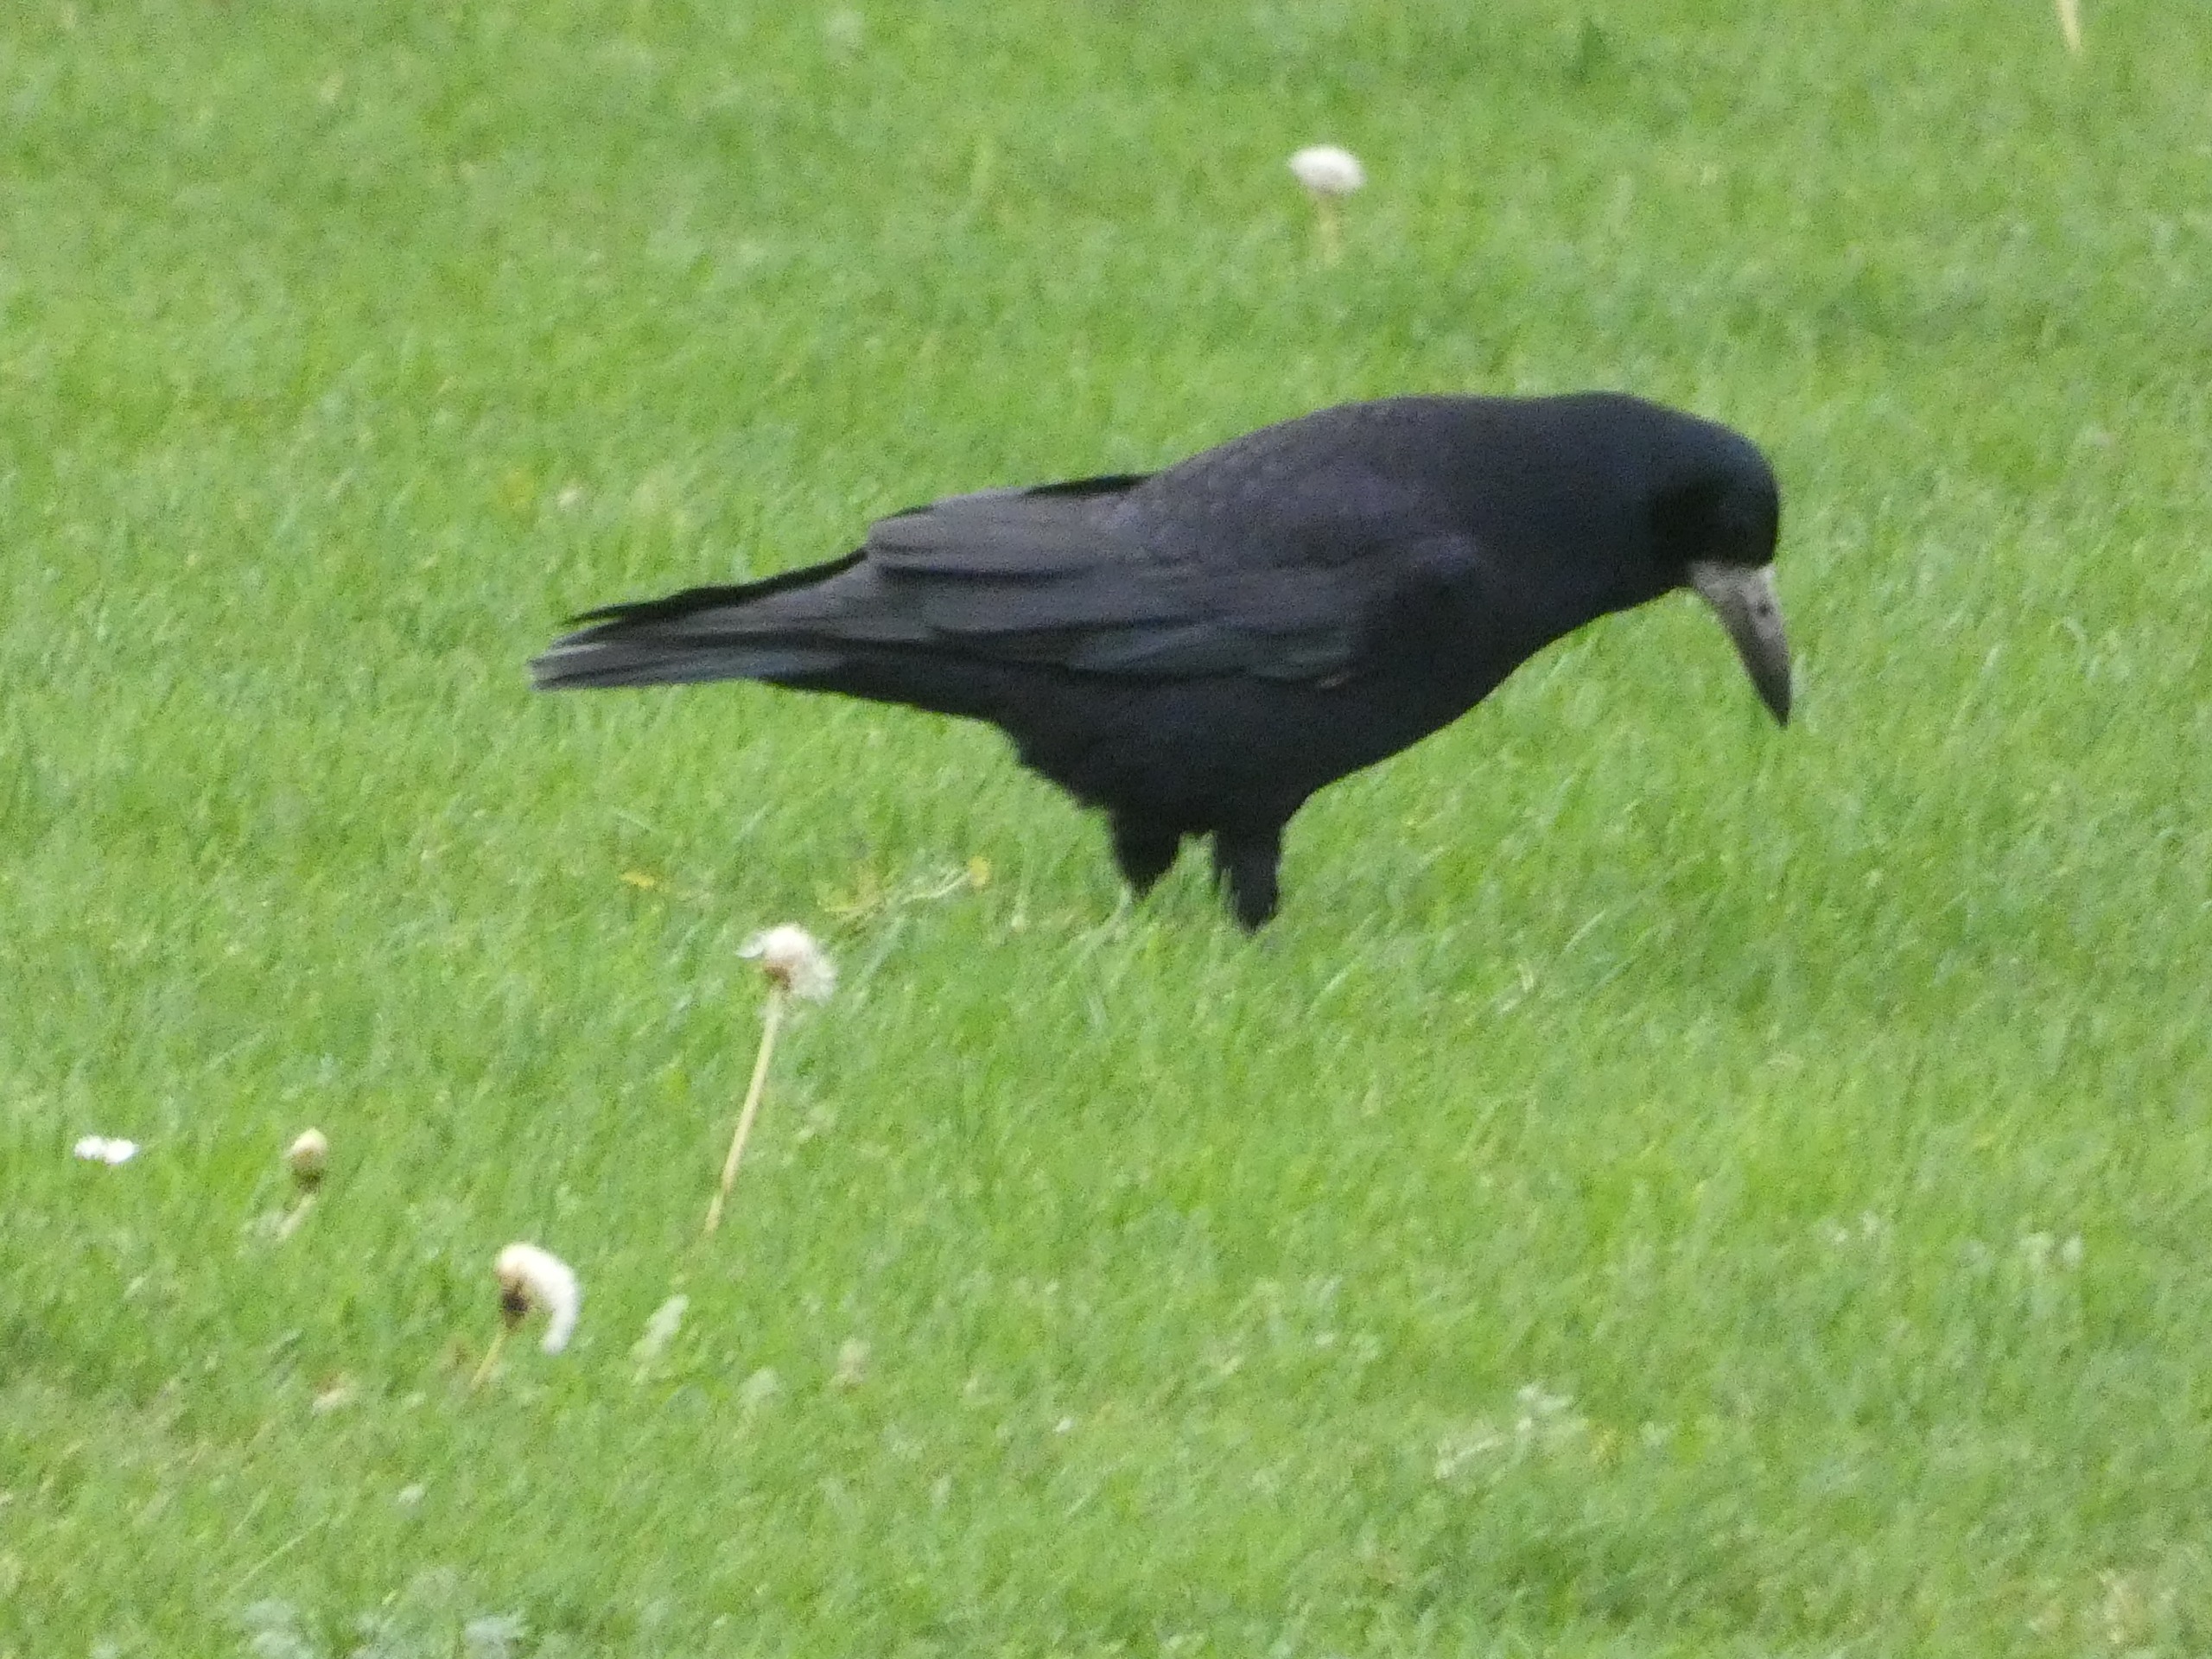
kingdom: Animalia
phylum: Chordata
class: Aves
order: Passeriformes
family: Corvidae
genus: Corvus
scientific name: Corvus frugilegus
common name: Råge
